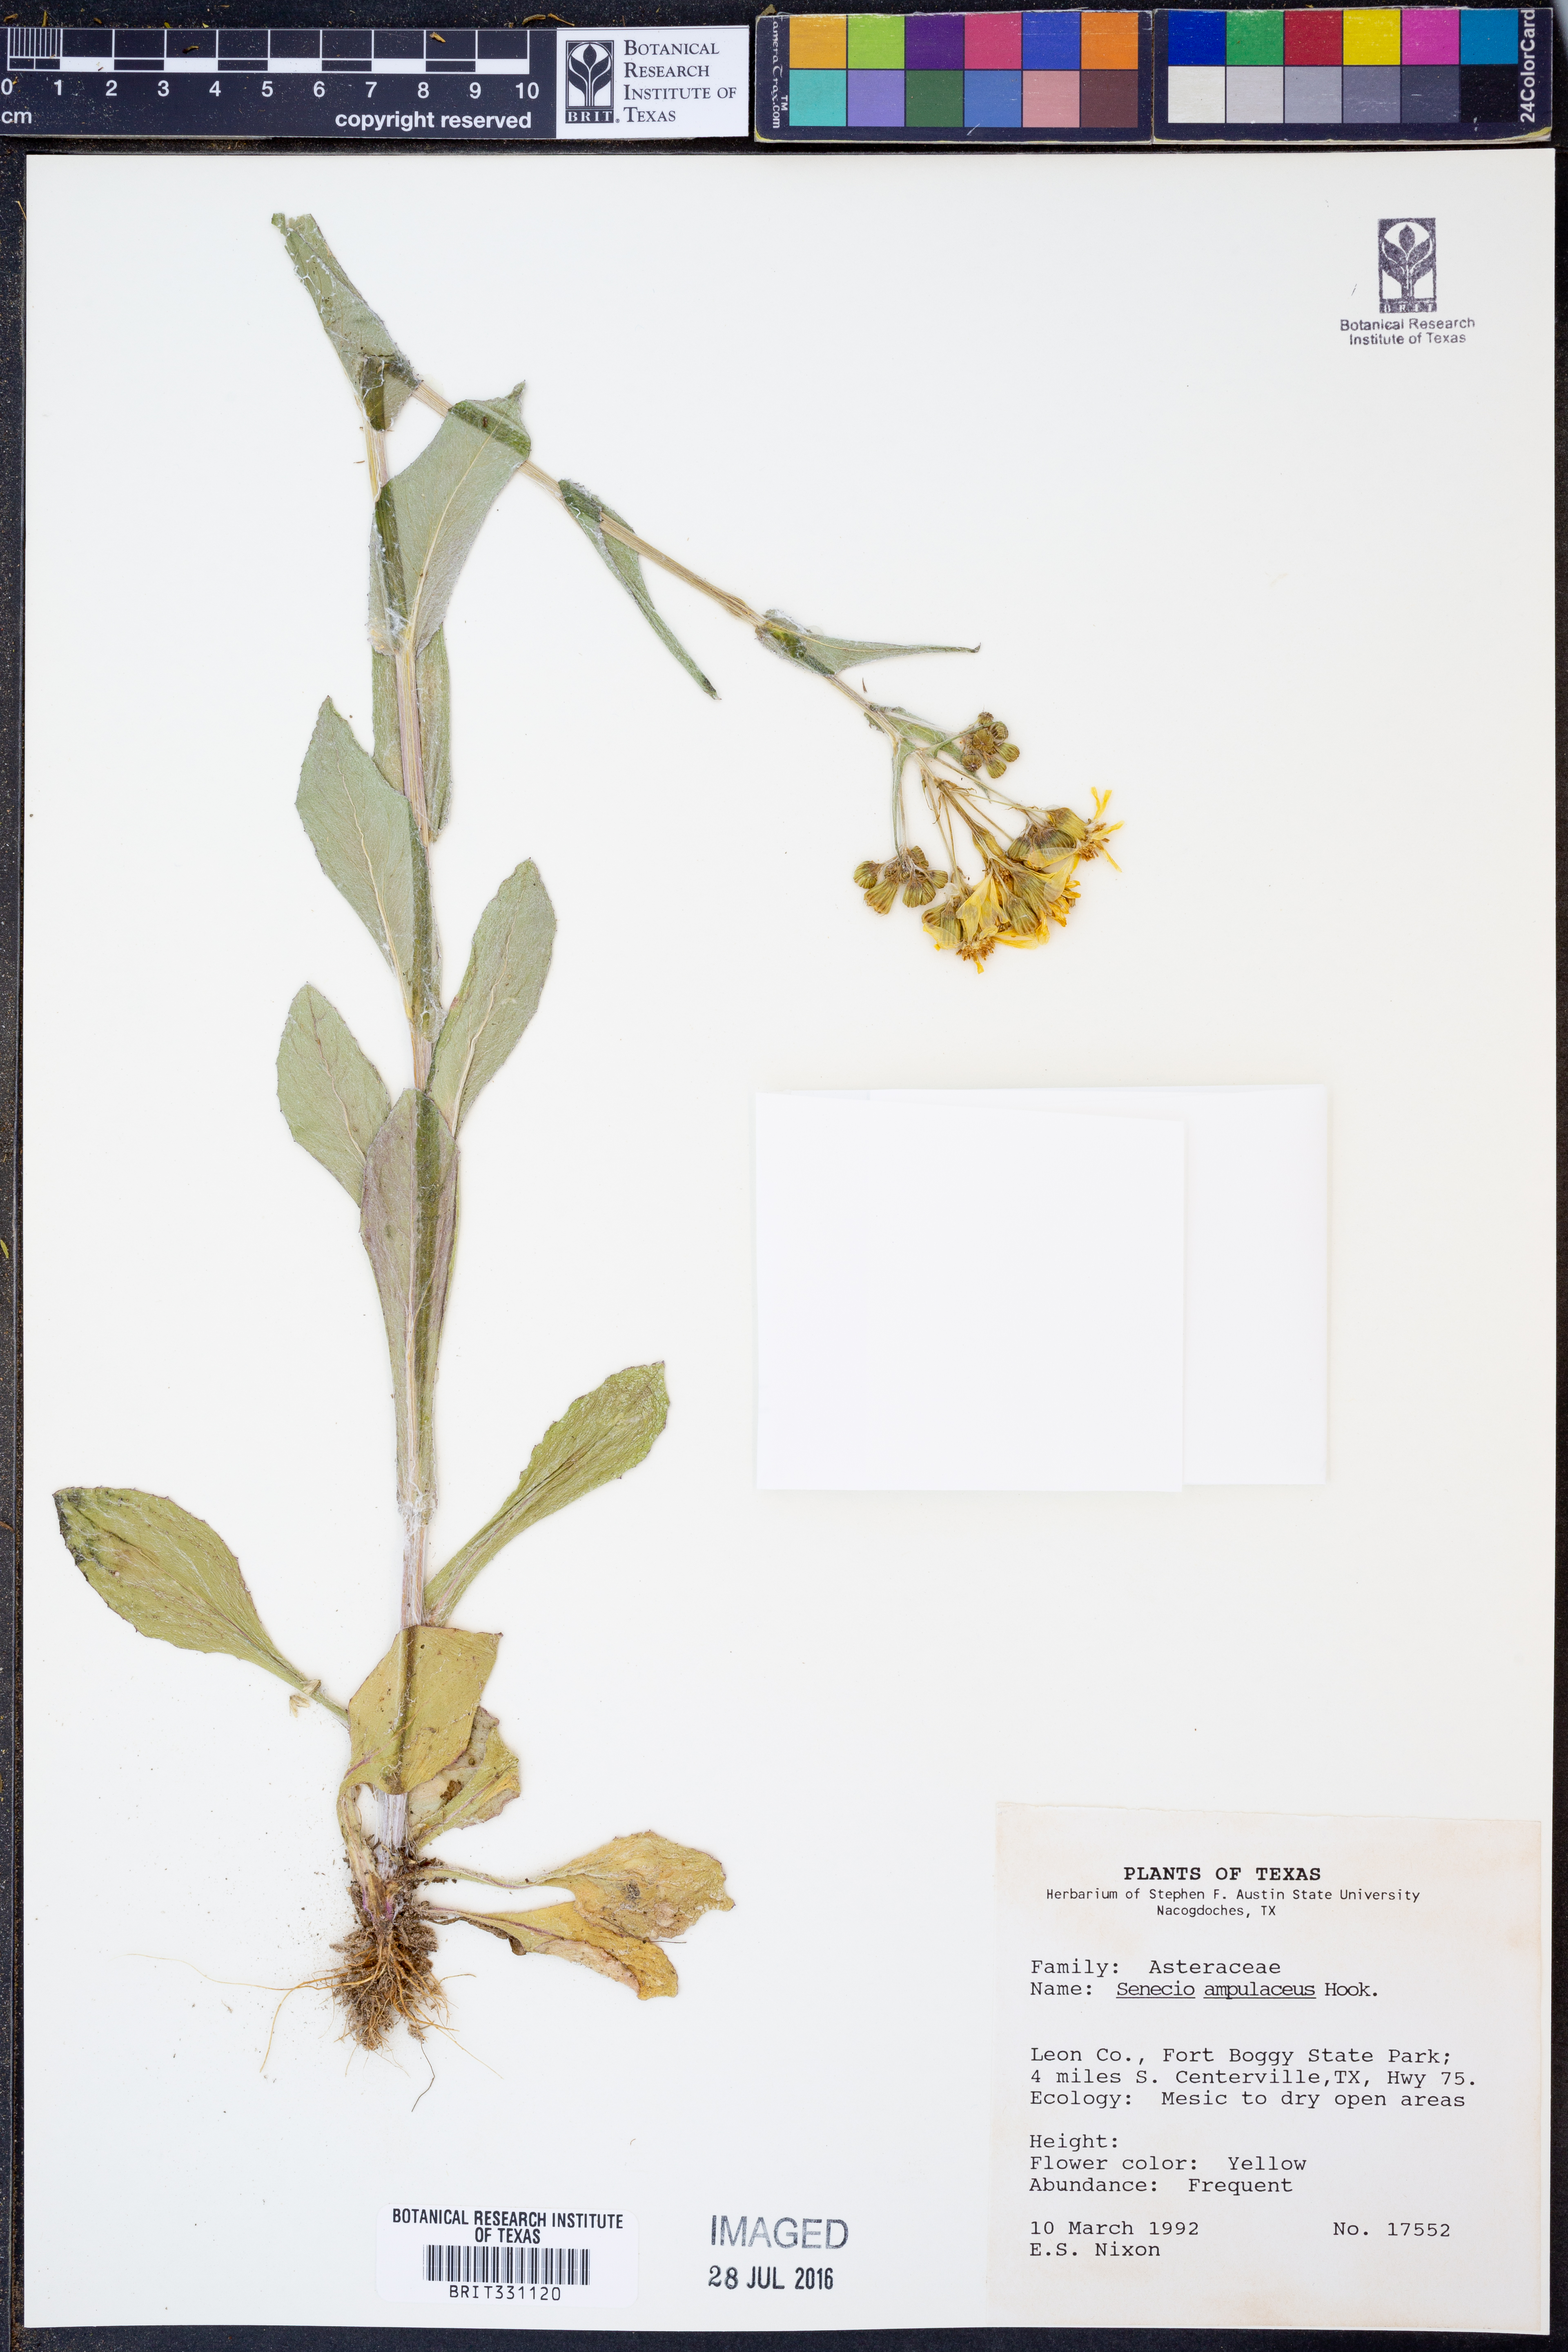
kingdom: Plantae
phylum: Tracheophyta
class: Magnoliopsida
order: Asterales
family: Asteraceae
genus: Senecio
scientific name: Senecio ampullaceus
